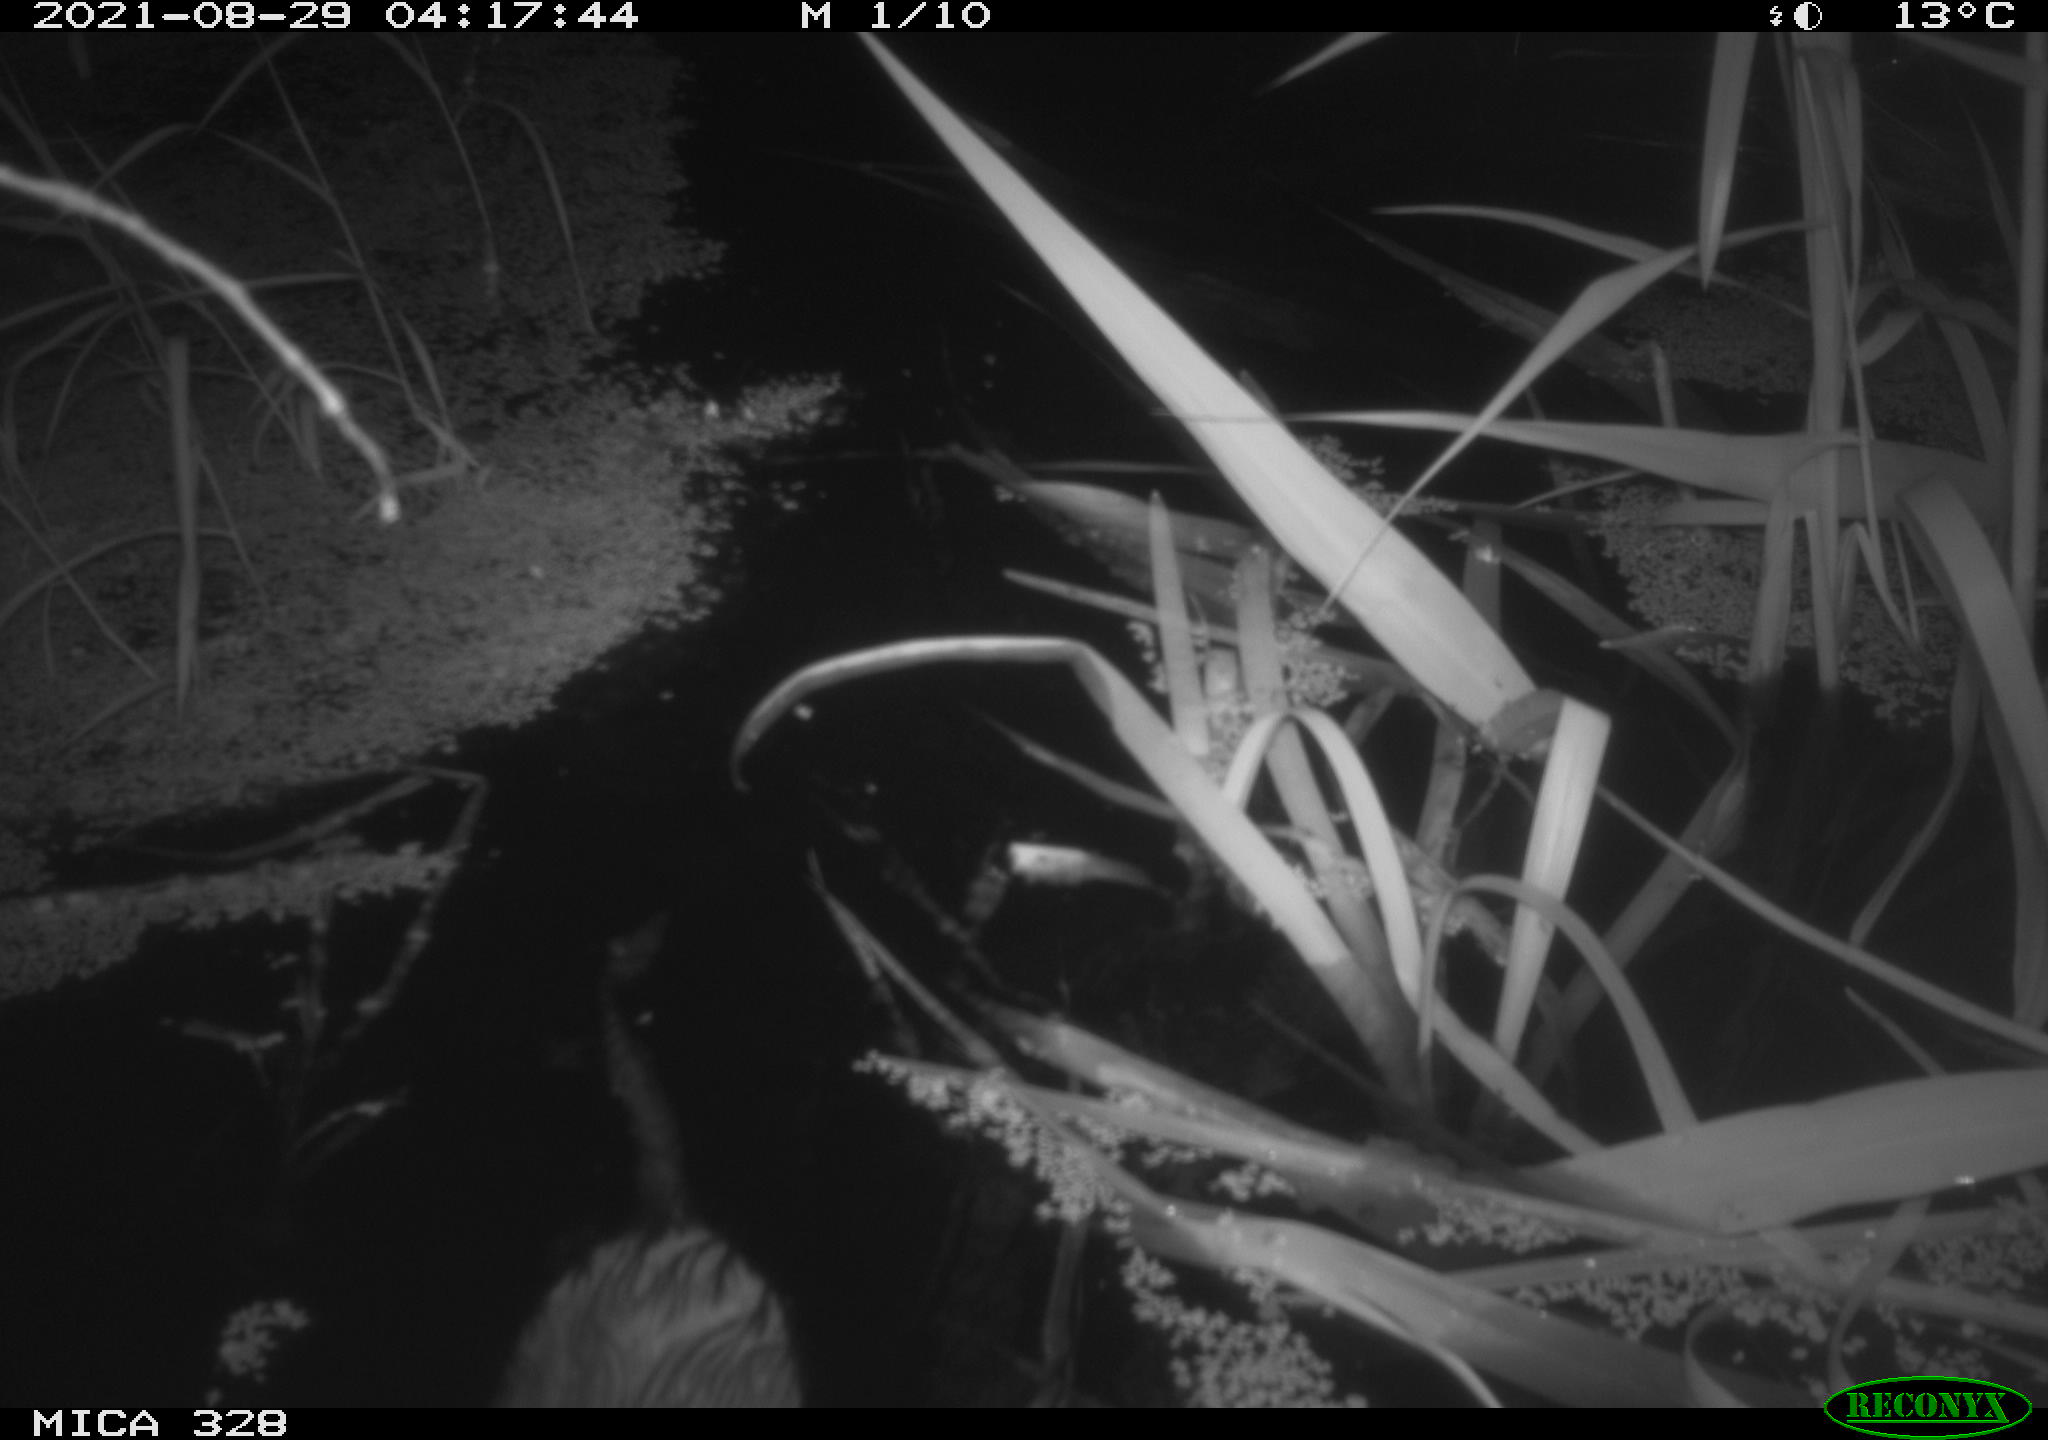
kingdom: Animalia
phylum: Chordata
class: Mammalia
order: Rodentia
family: Cricetidae
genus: Ondatra
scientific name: Ondatra zibethicus
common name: Muskrat
